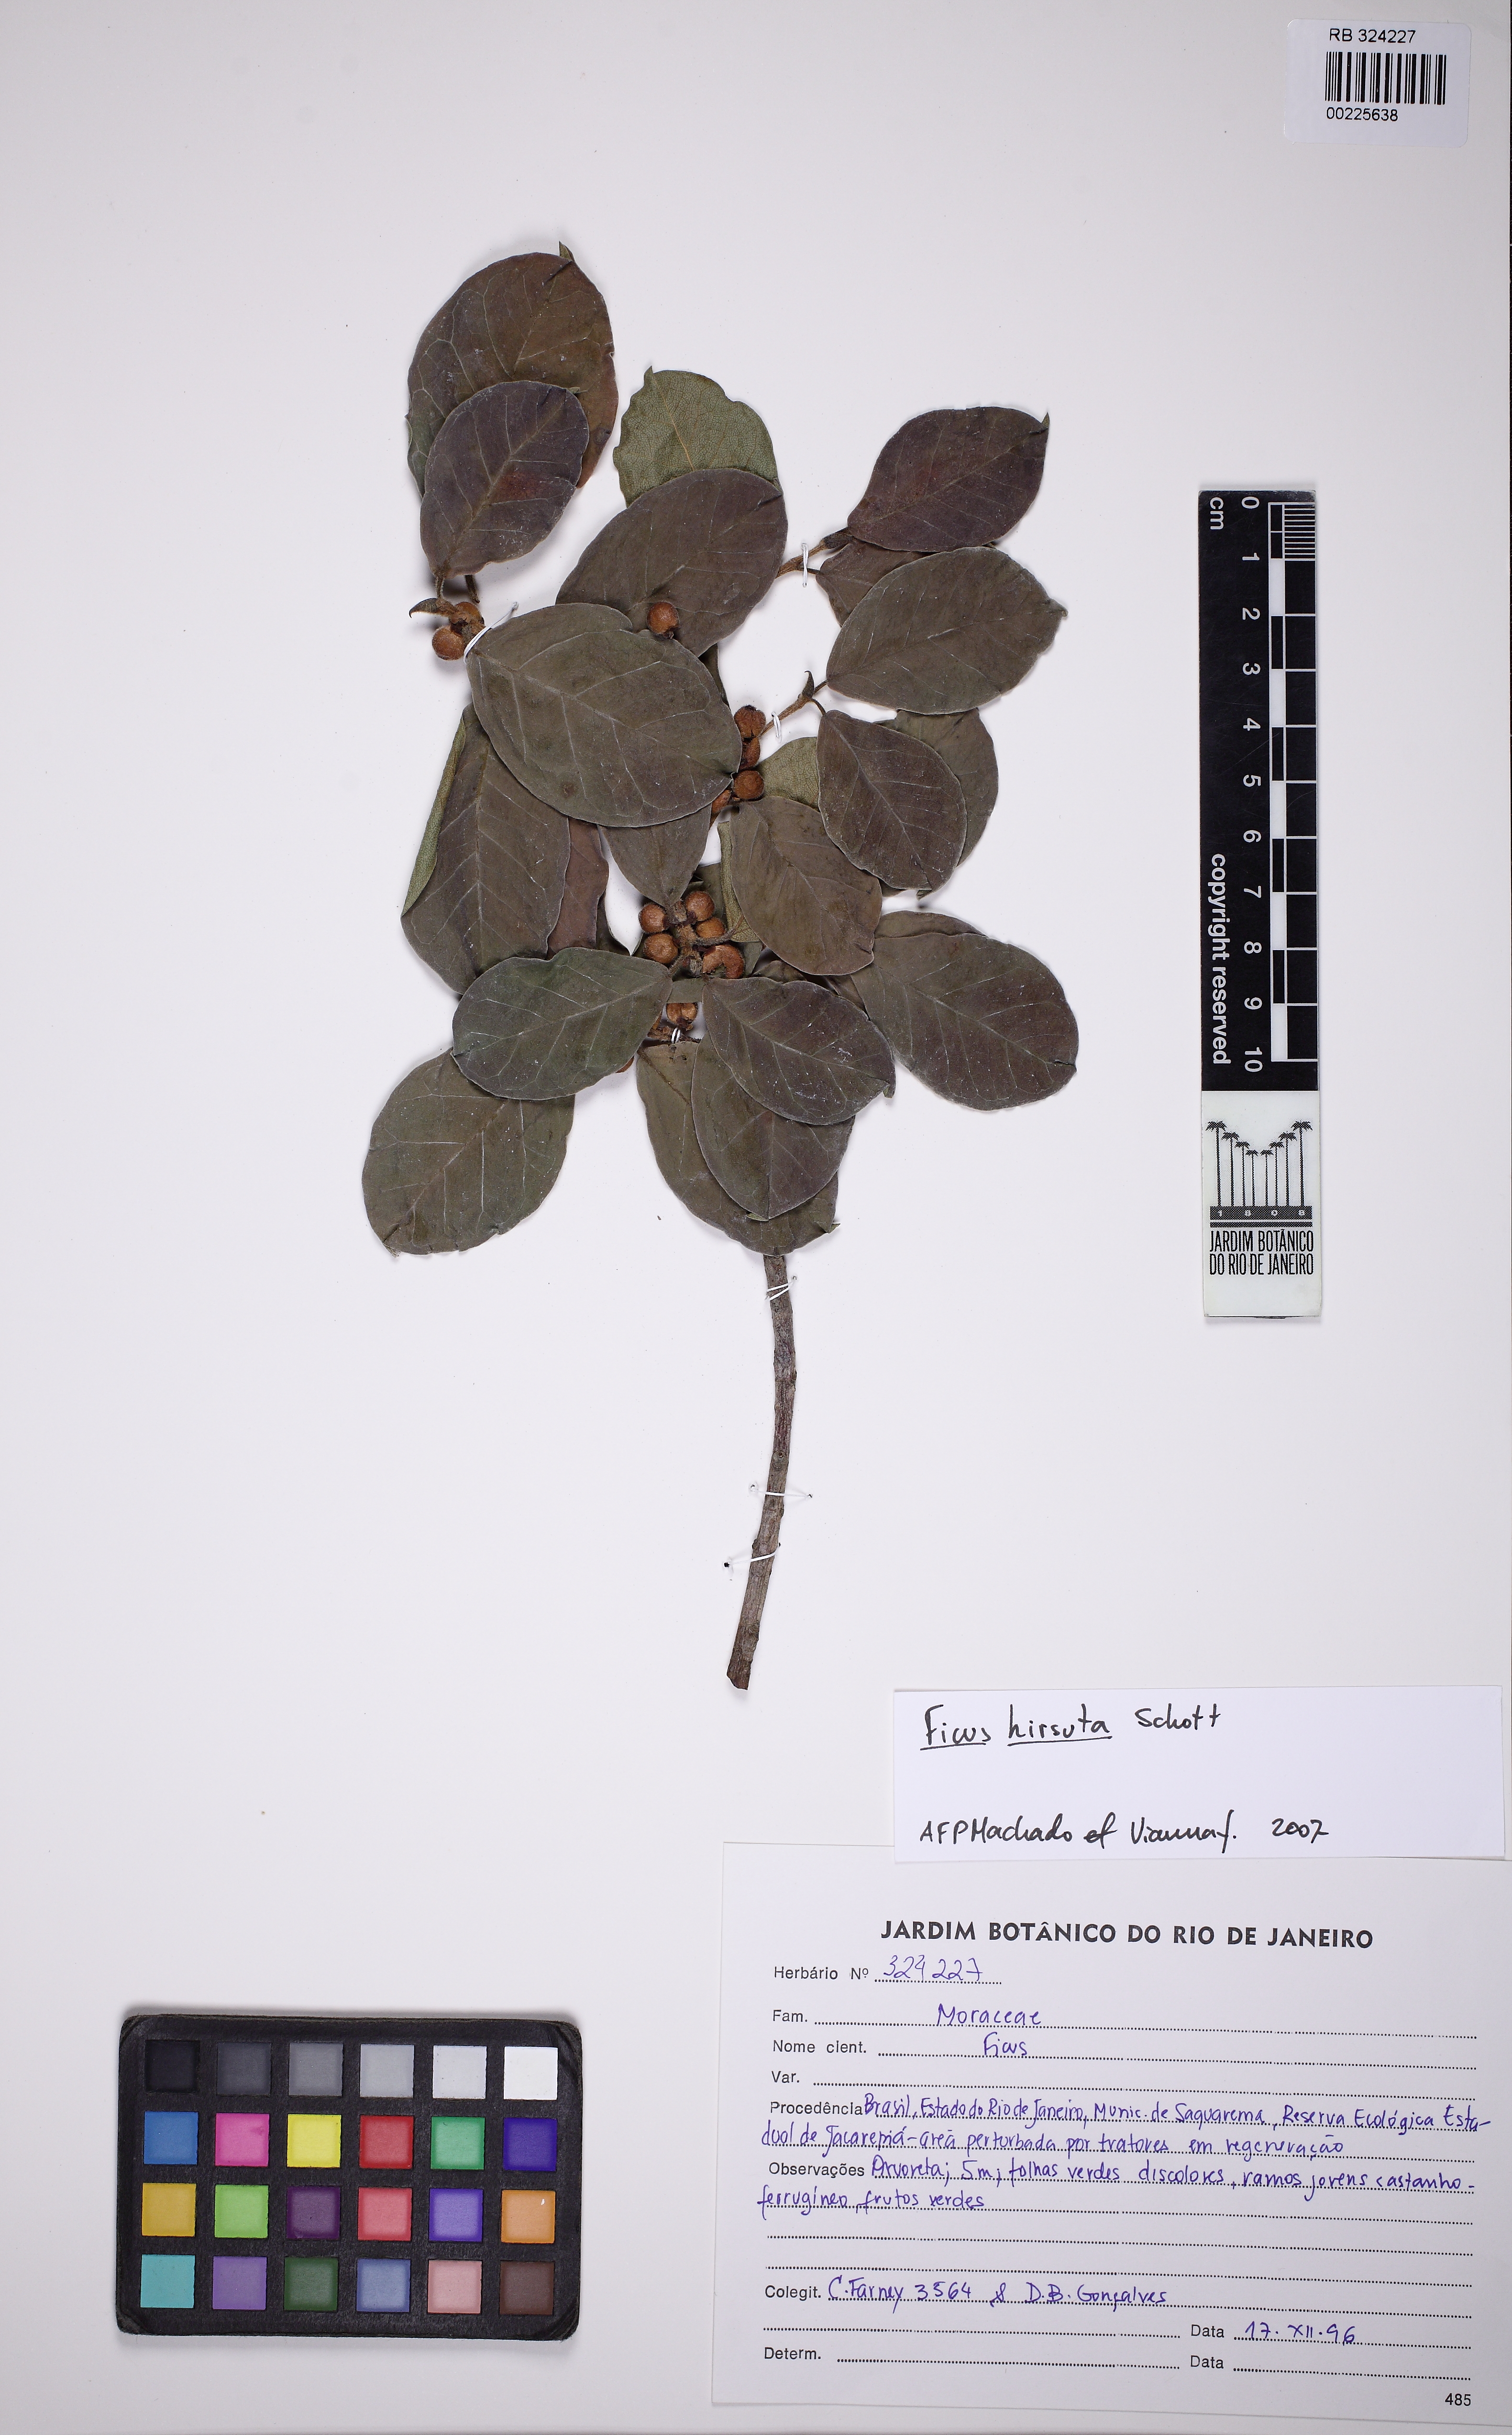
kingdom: Plantae
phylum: Tracheophyta
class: Magnoliopsida
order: Rosales
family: Moraceae
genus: Ficus
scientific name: Ficus hirsuta
